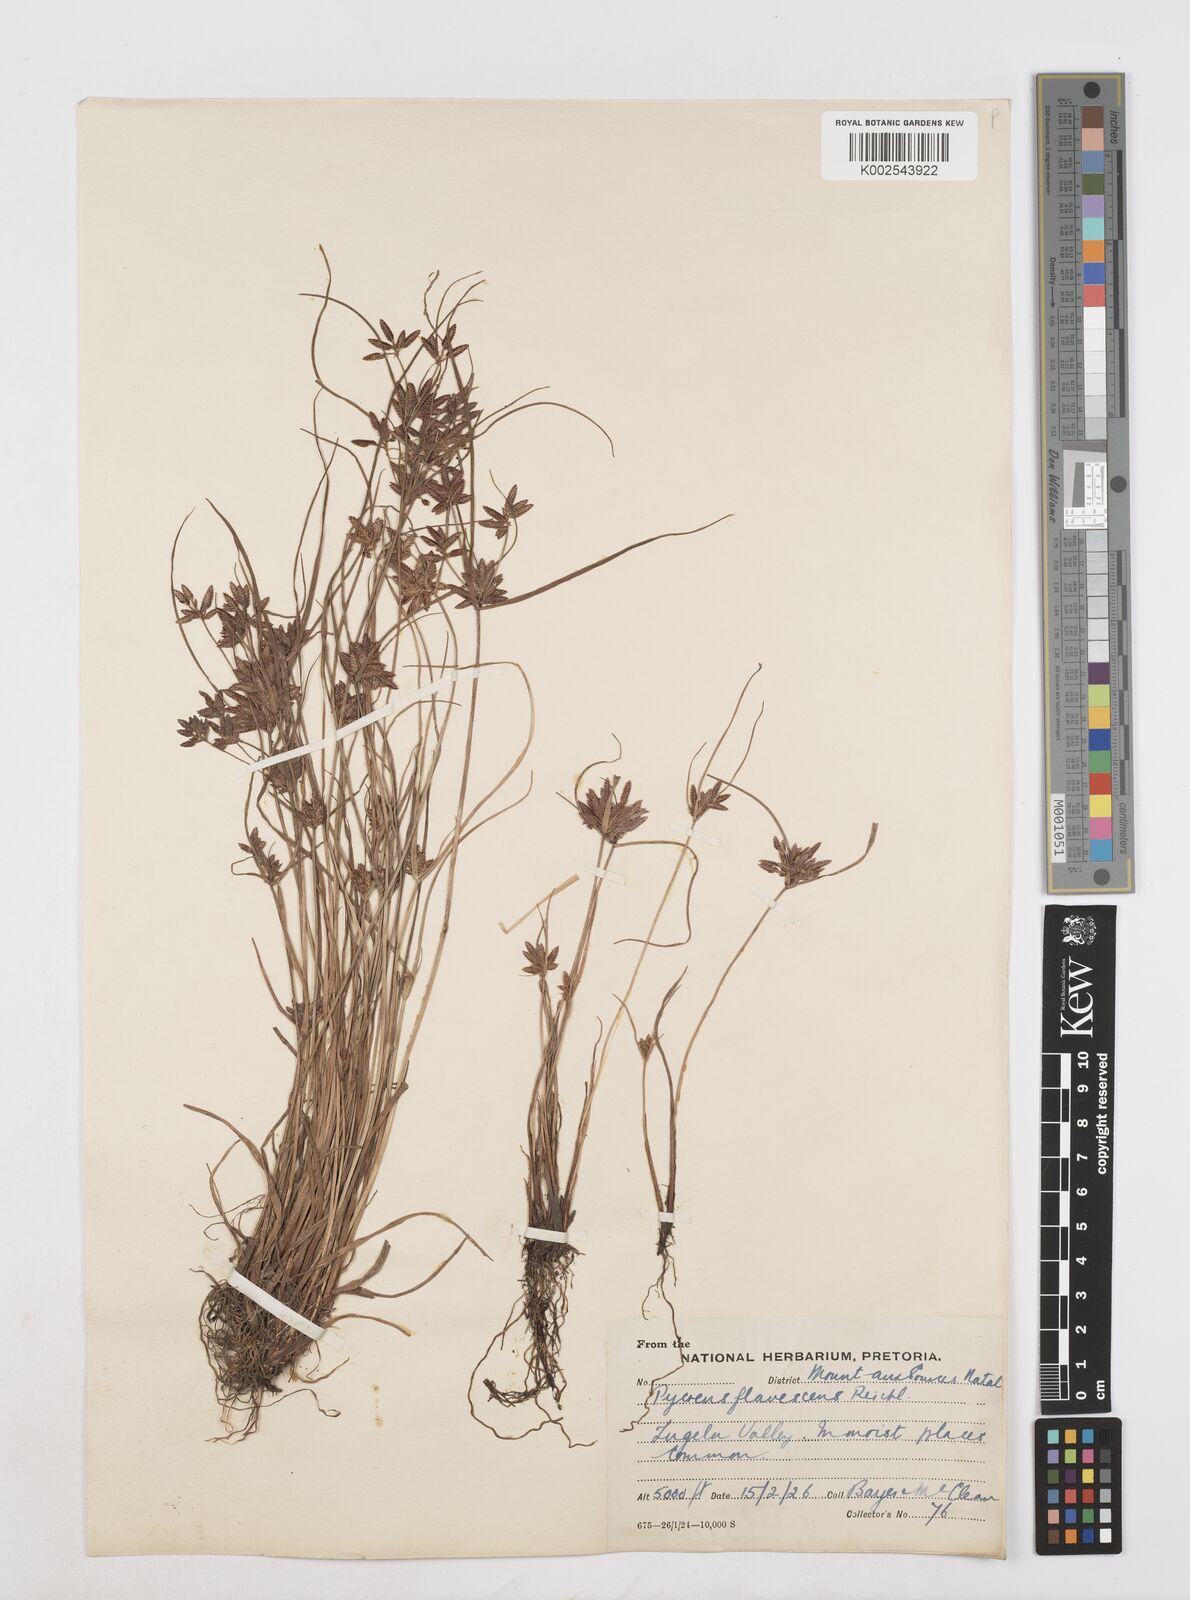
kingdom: Plantae
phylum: Tracheophyta
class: Liliopsida
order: Poales
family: Cyperaceae
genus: Cyperus
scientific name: Cyperus flavescens
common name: Yellow galingale
